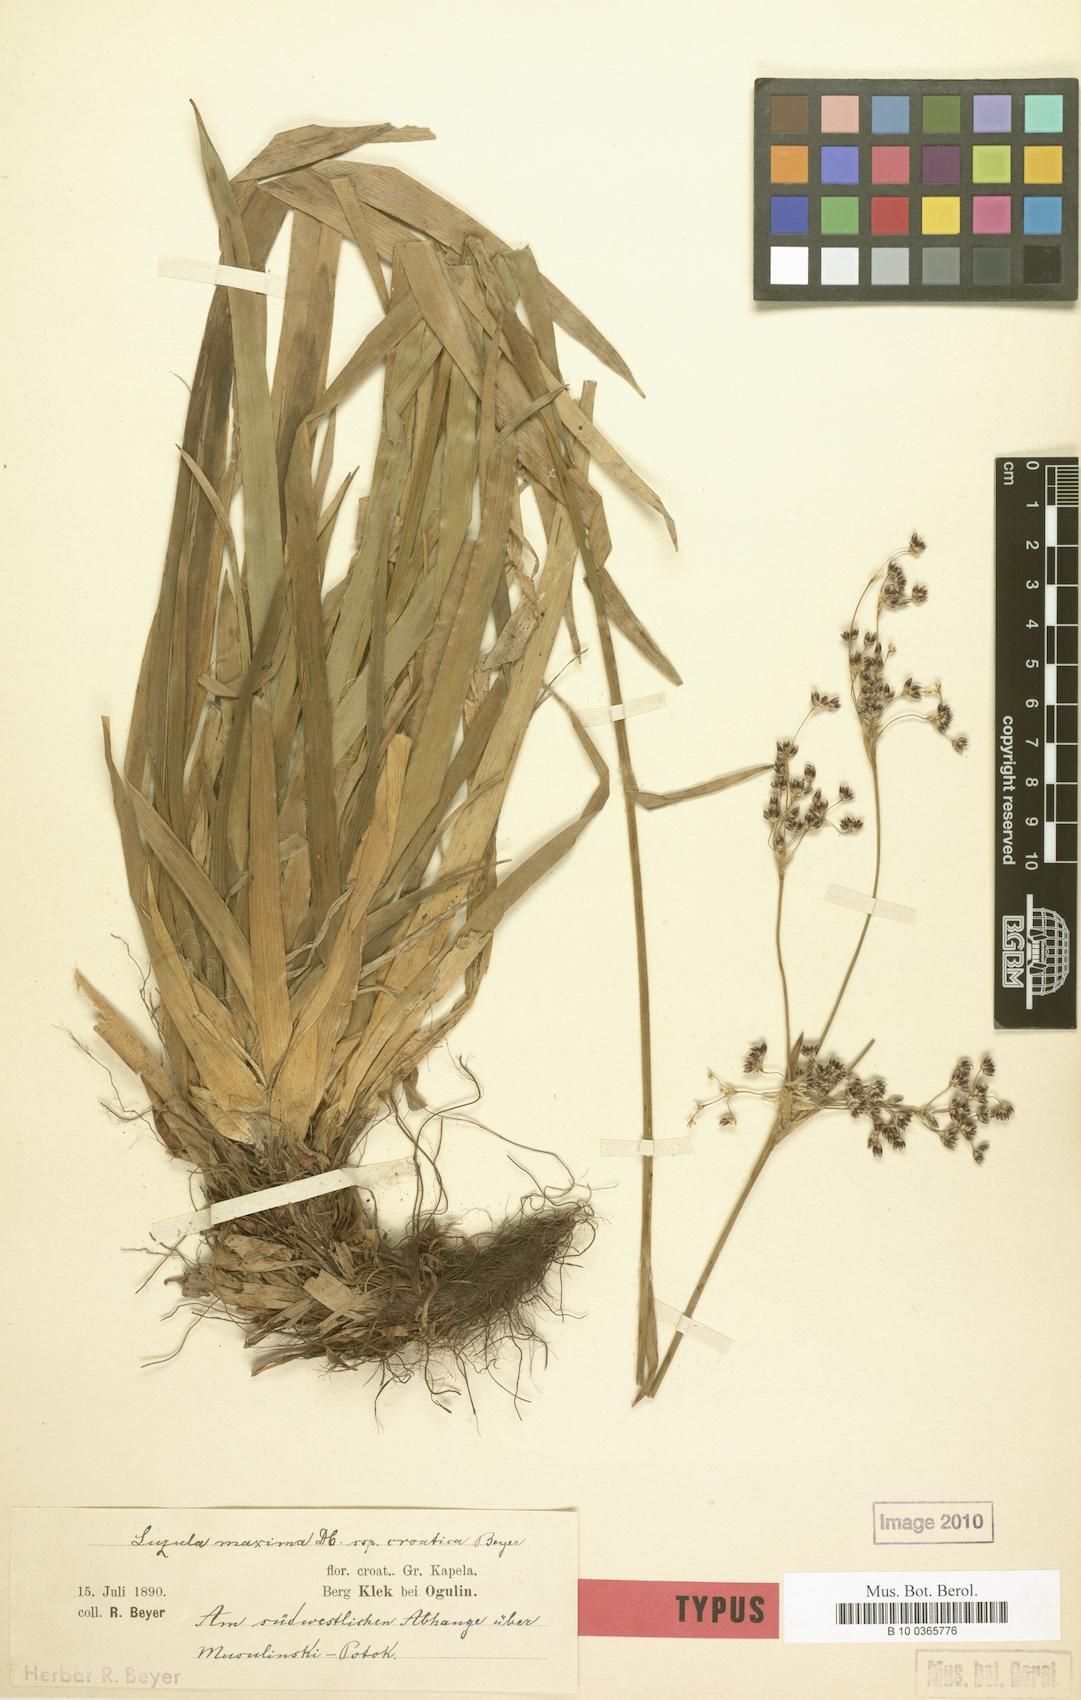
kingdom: Plantae
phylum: Tracheophyta
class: Liliopsida
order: Poales
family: Juncaceae
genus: Luzula
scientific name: Luzula sylvatica
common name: Great wood-rush
